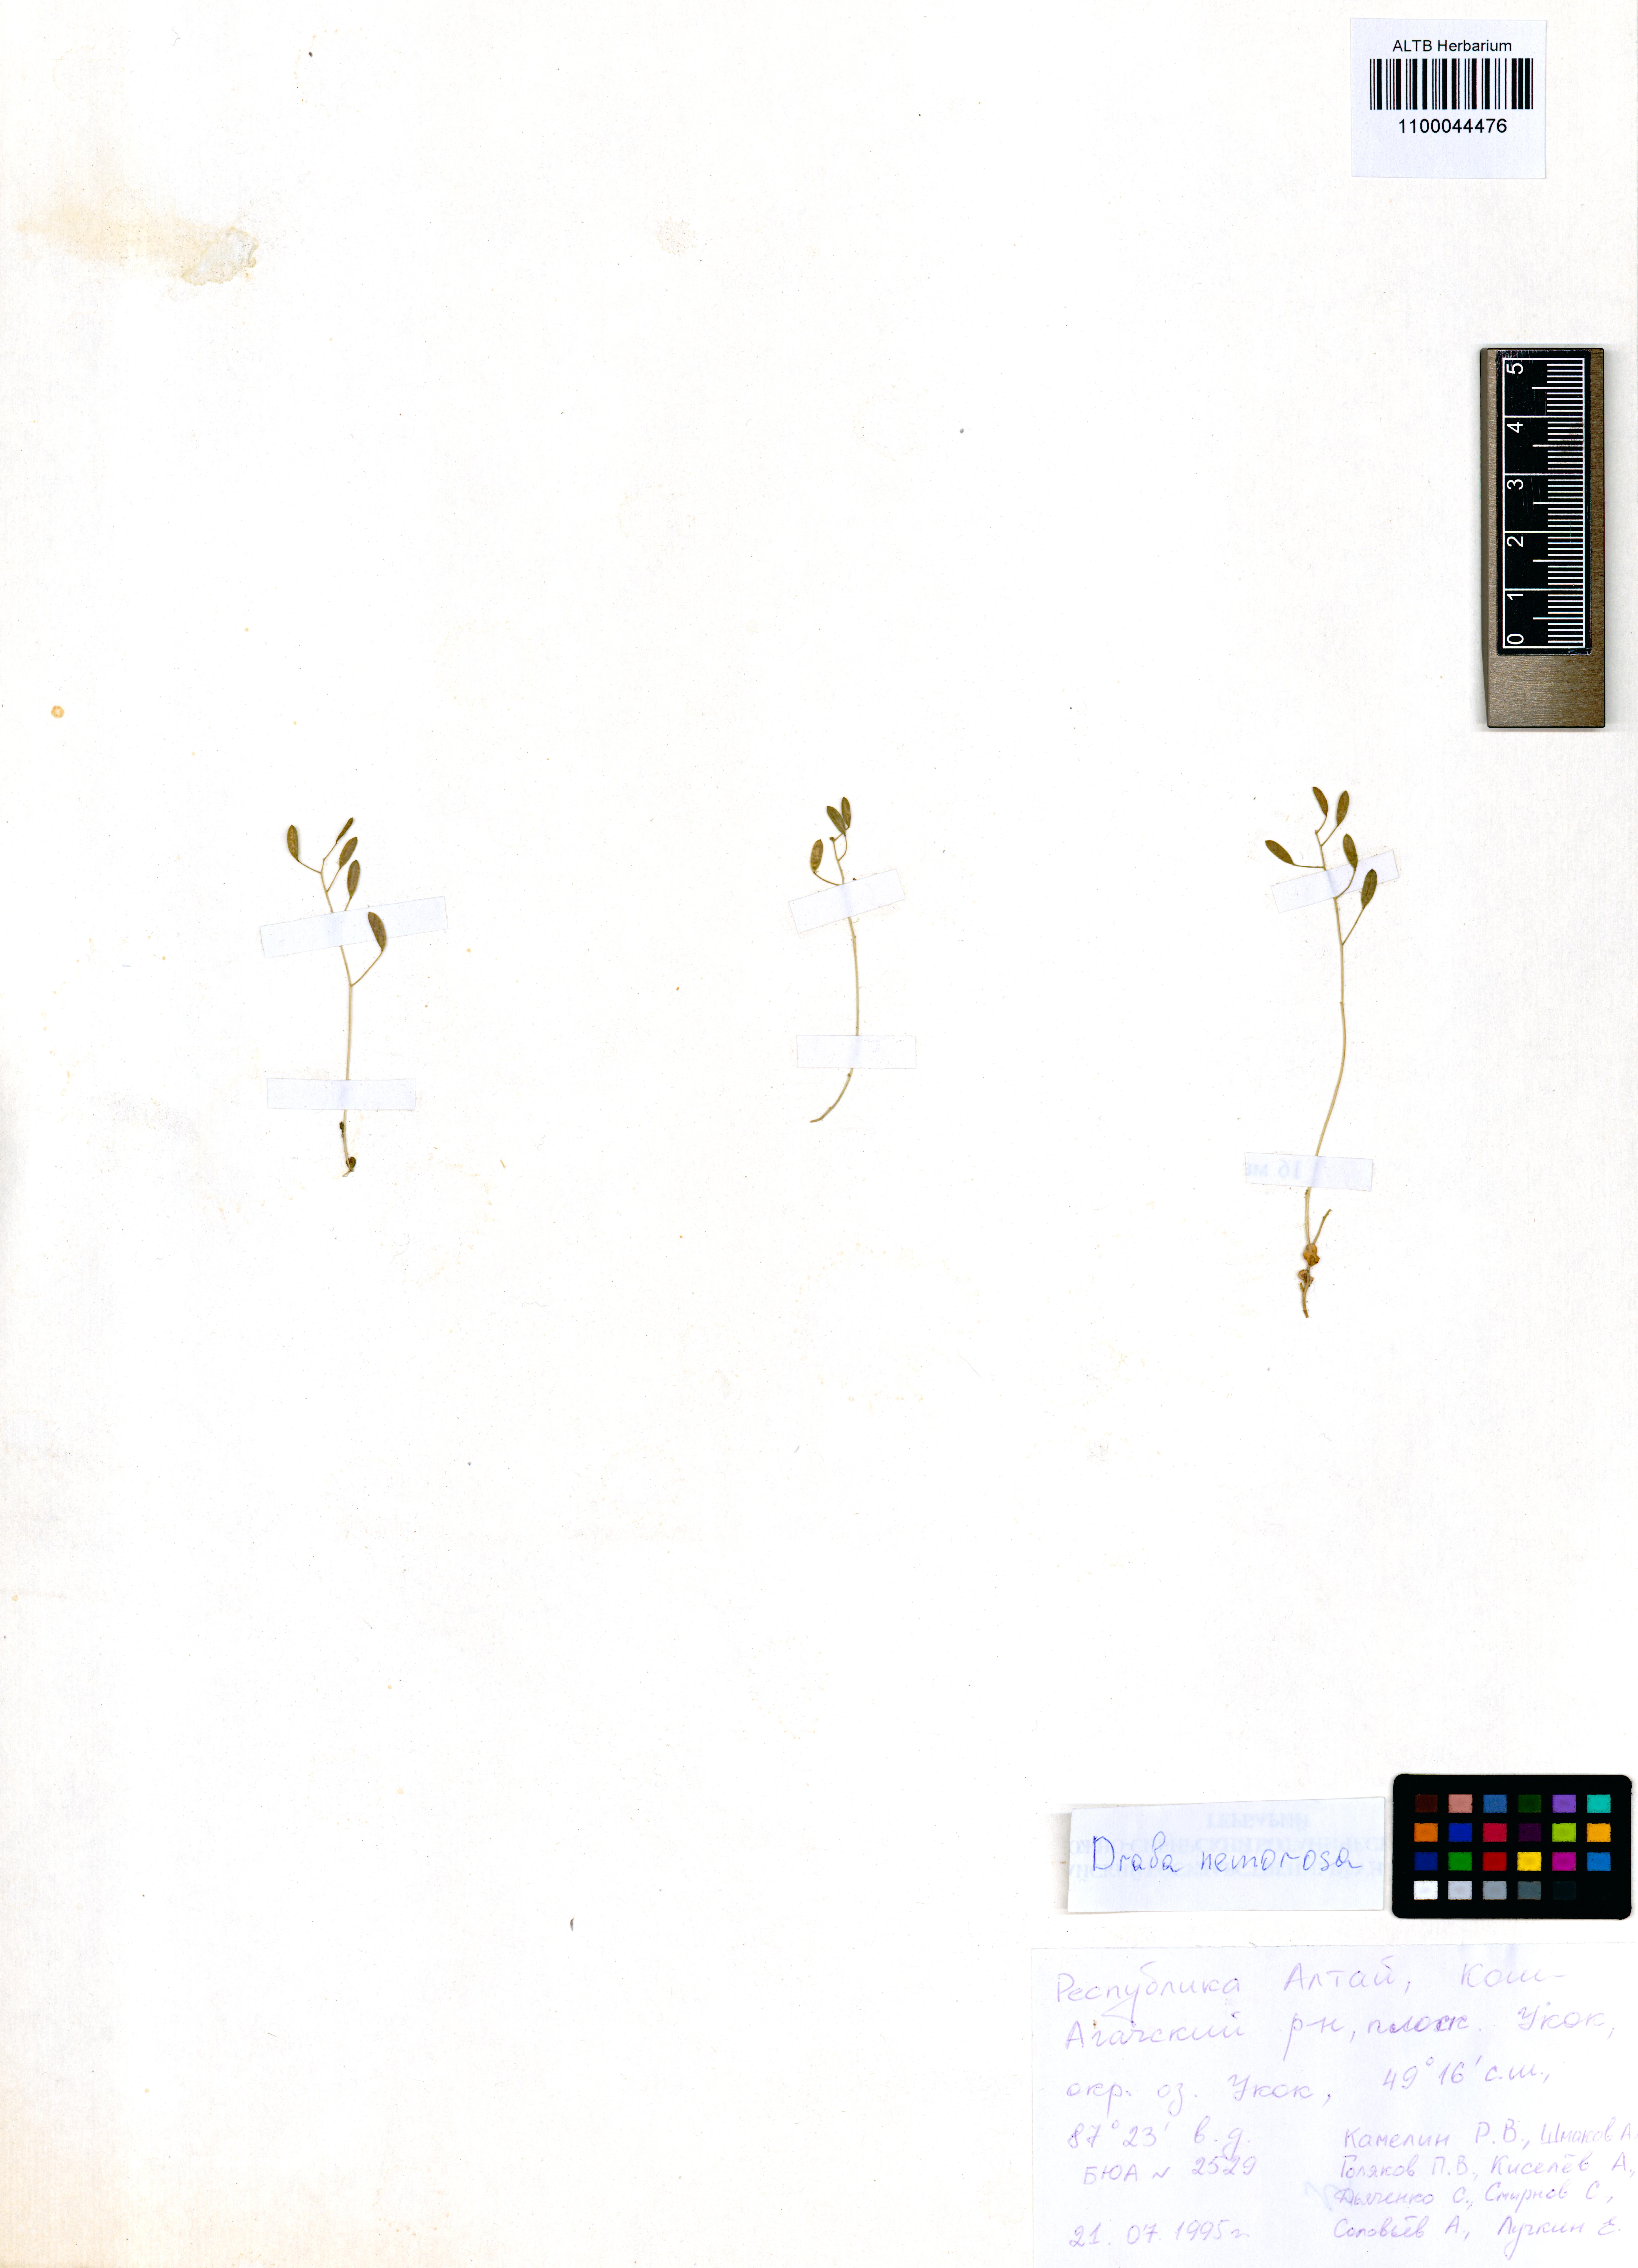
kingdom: Plantae
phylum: Tracheophyta
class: Magnoliopsida
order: Brassicales
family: Brassicaceae
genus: Draba
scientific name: Draba nemorosa
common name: Wood whitlow-grass
